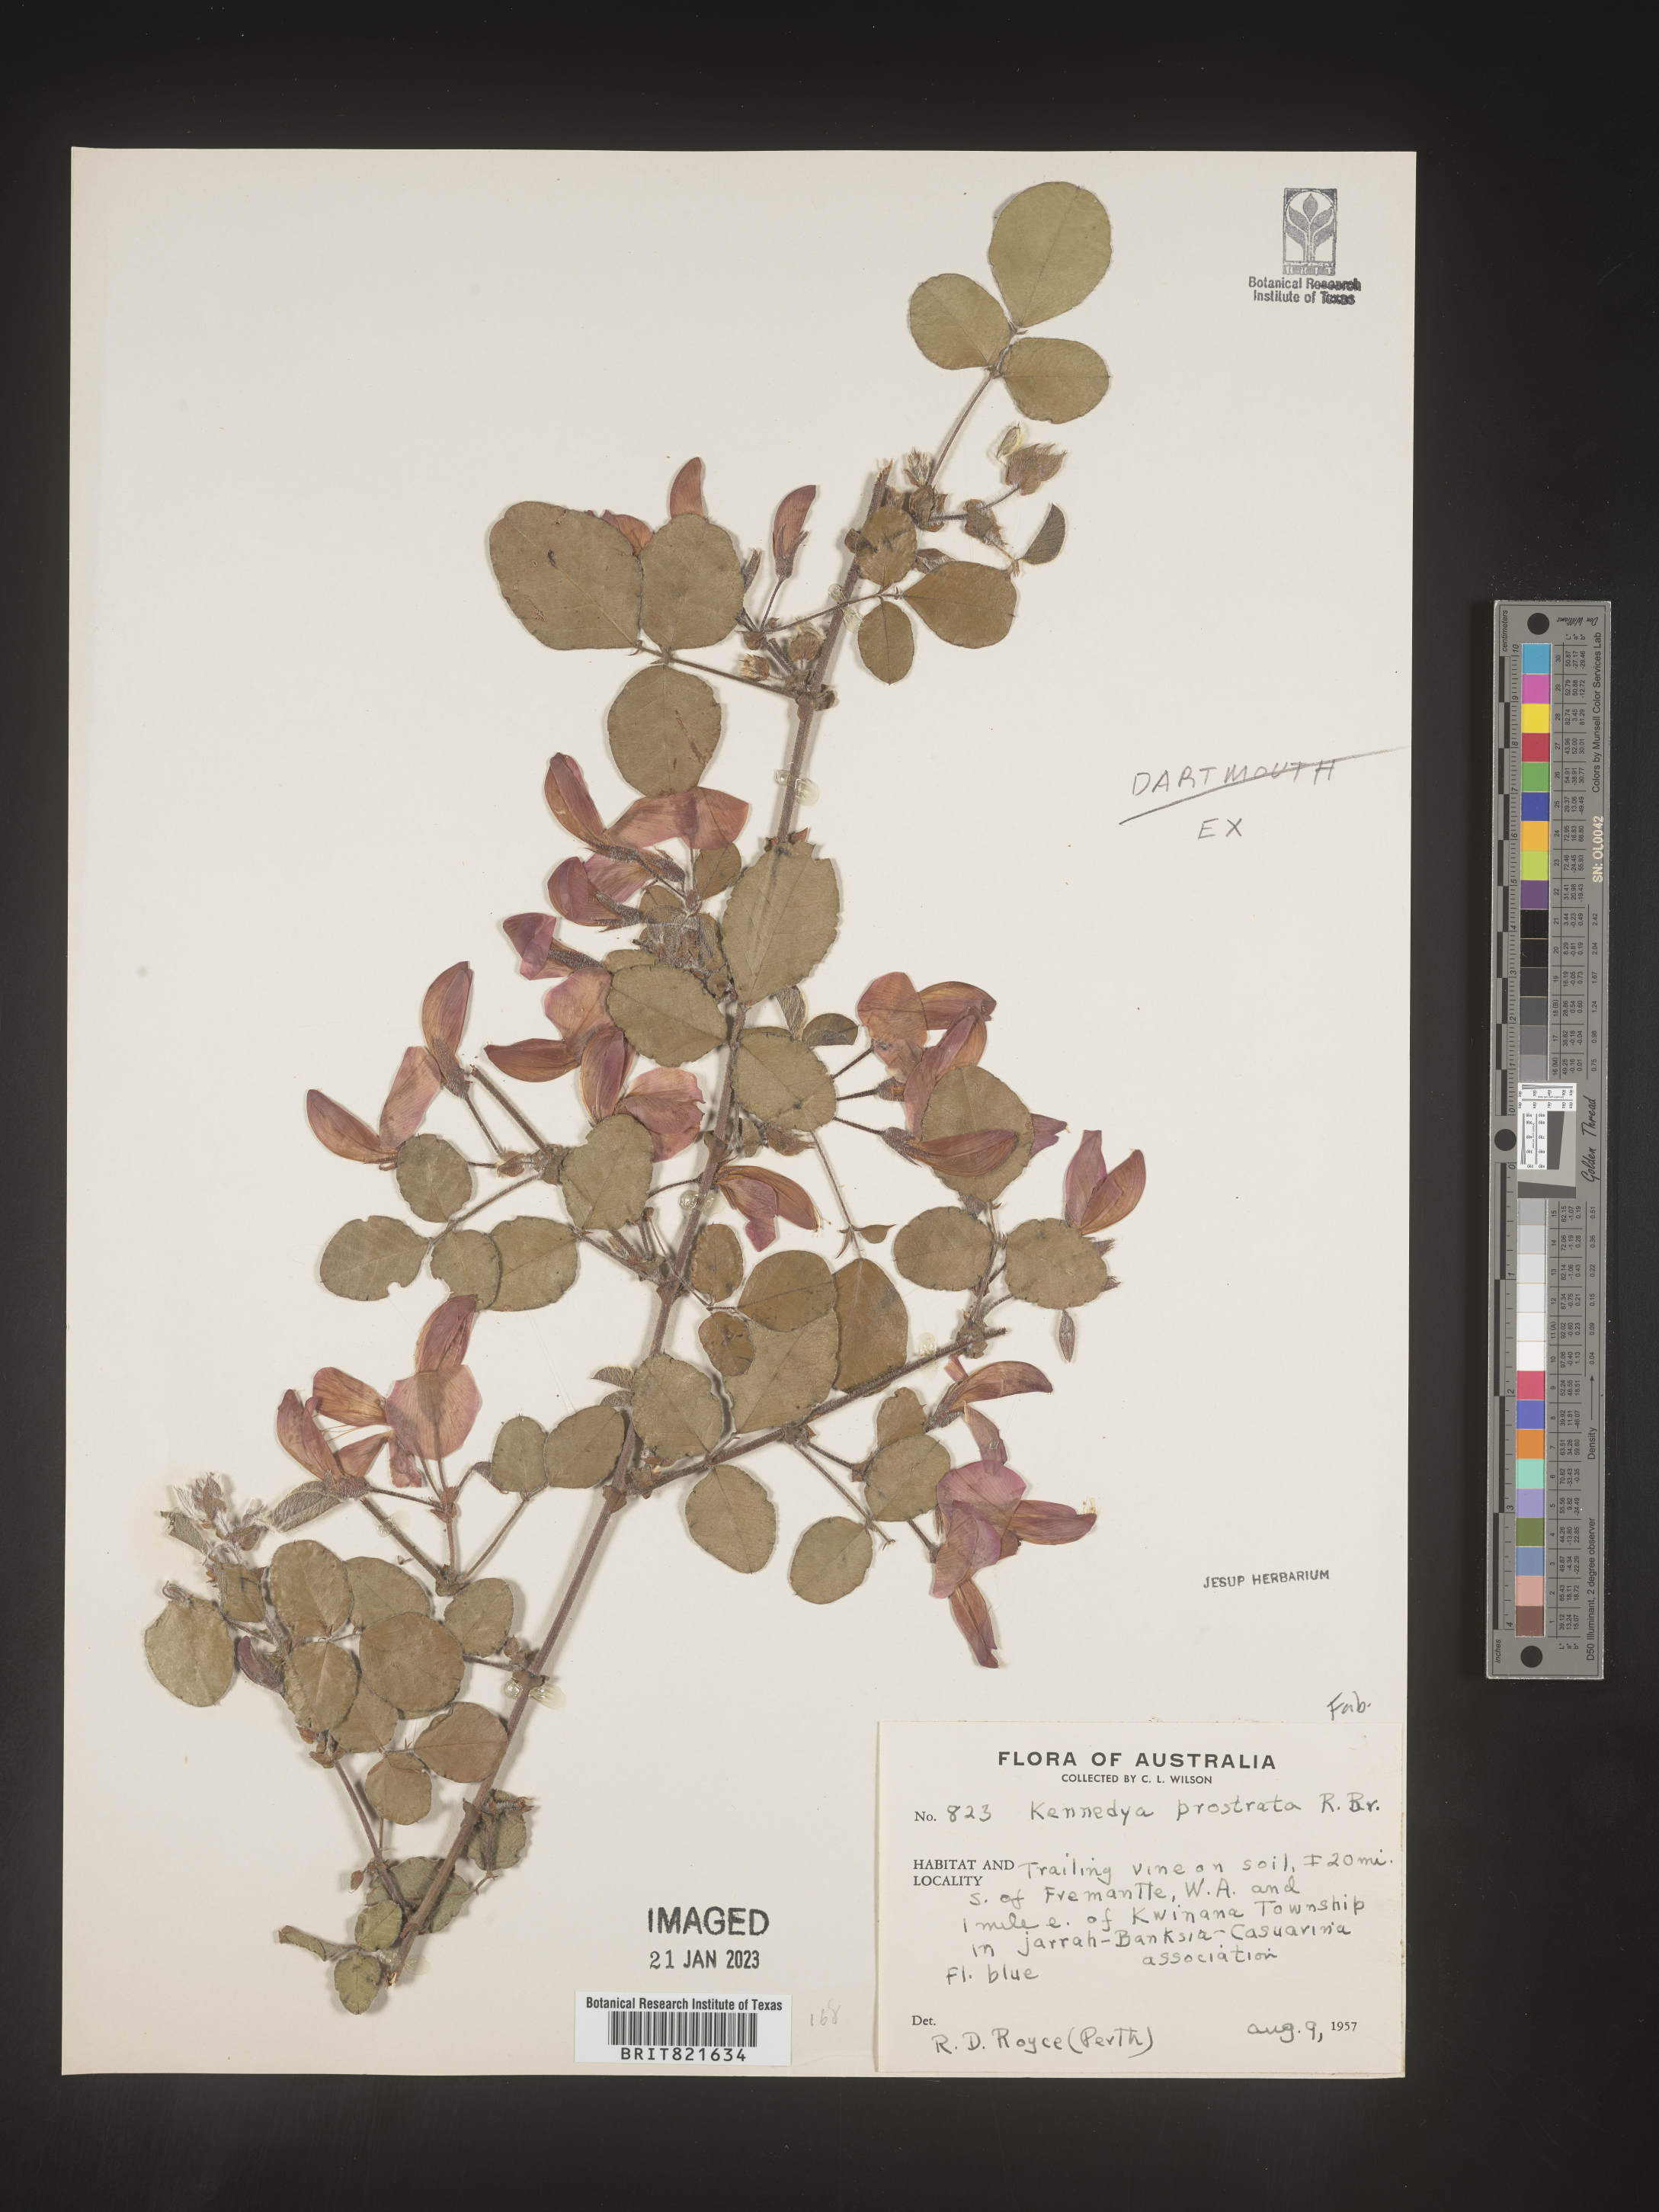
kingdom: Plantae
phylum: Tracheophyta
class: Magnoliopsida
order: Fabales
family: Fabaceae
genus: Kennedya
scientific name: Kennedya
